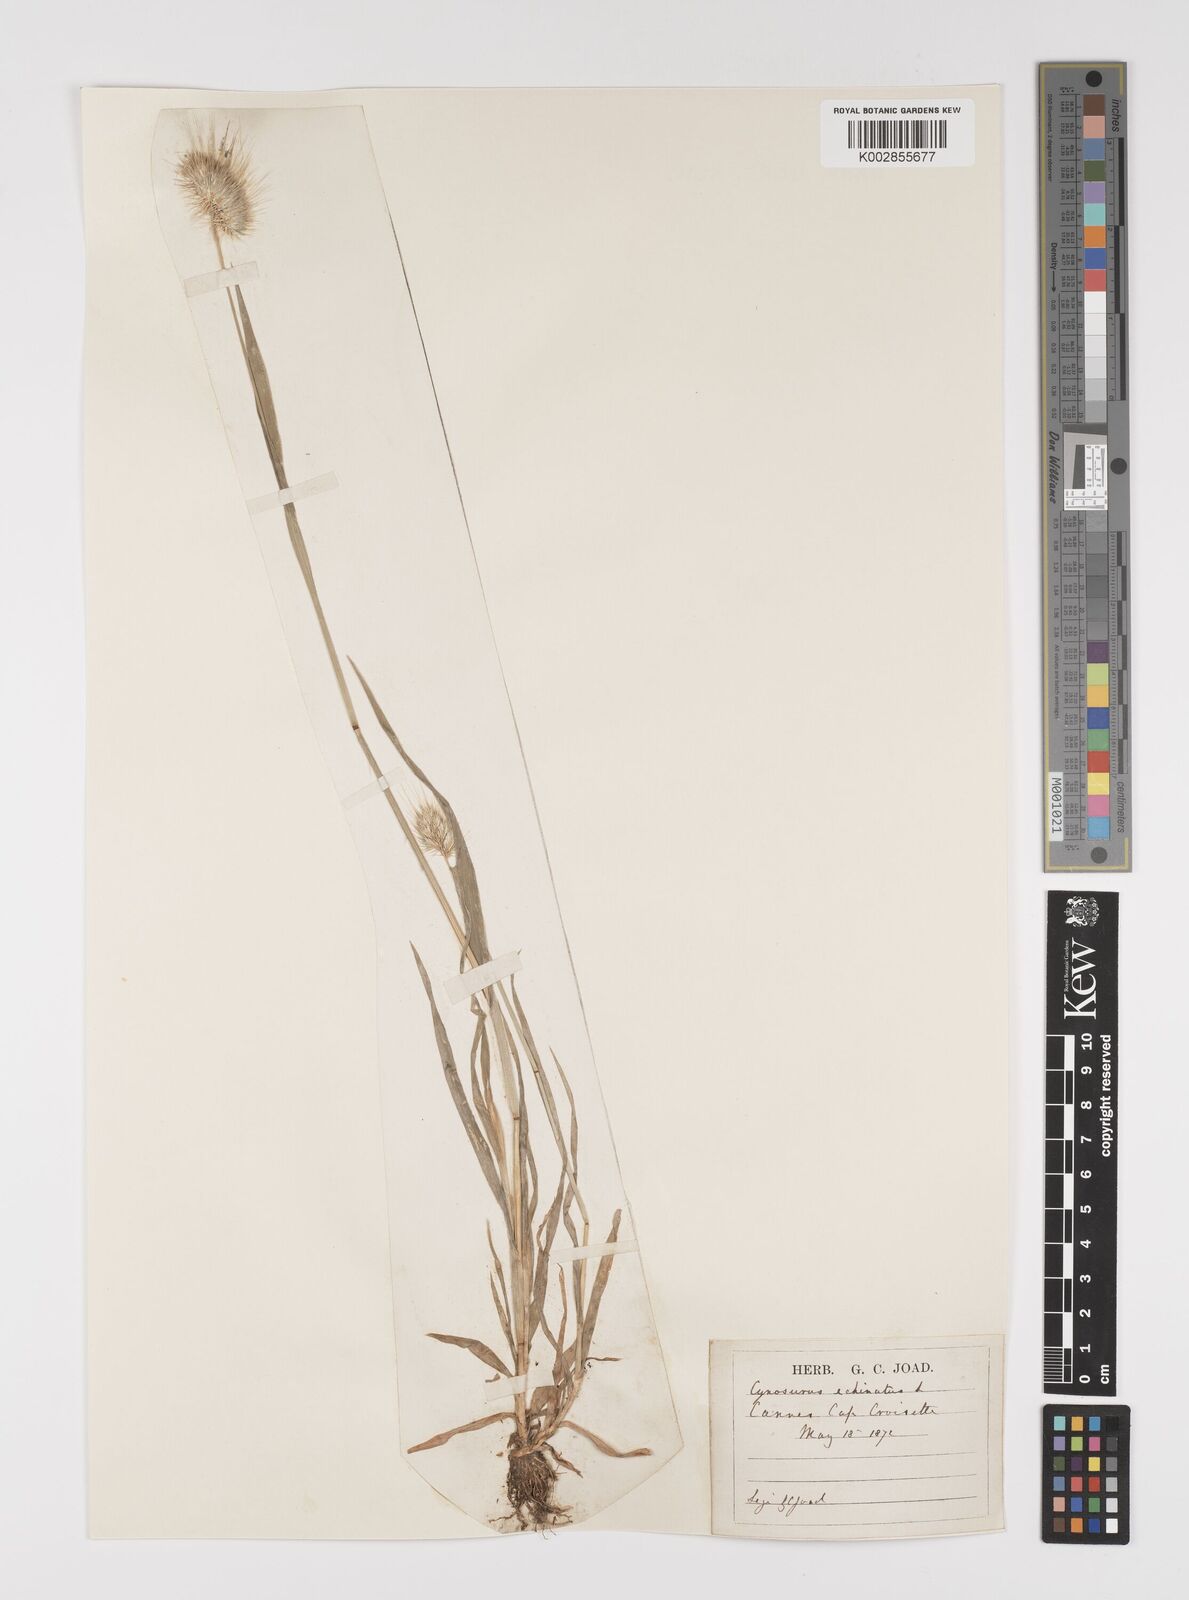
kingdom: Plantae
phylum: Tracheophyta
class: Liliopsida
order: Poales
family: Poaceae
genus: Cynosurus
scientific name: Cynosurus echinatus
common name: Rough dog's-tail
